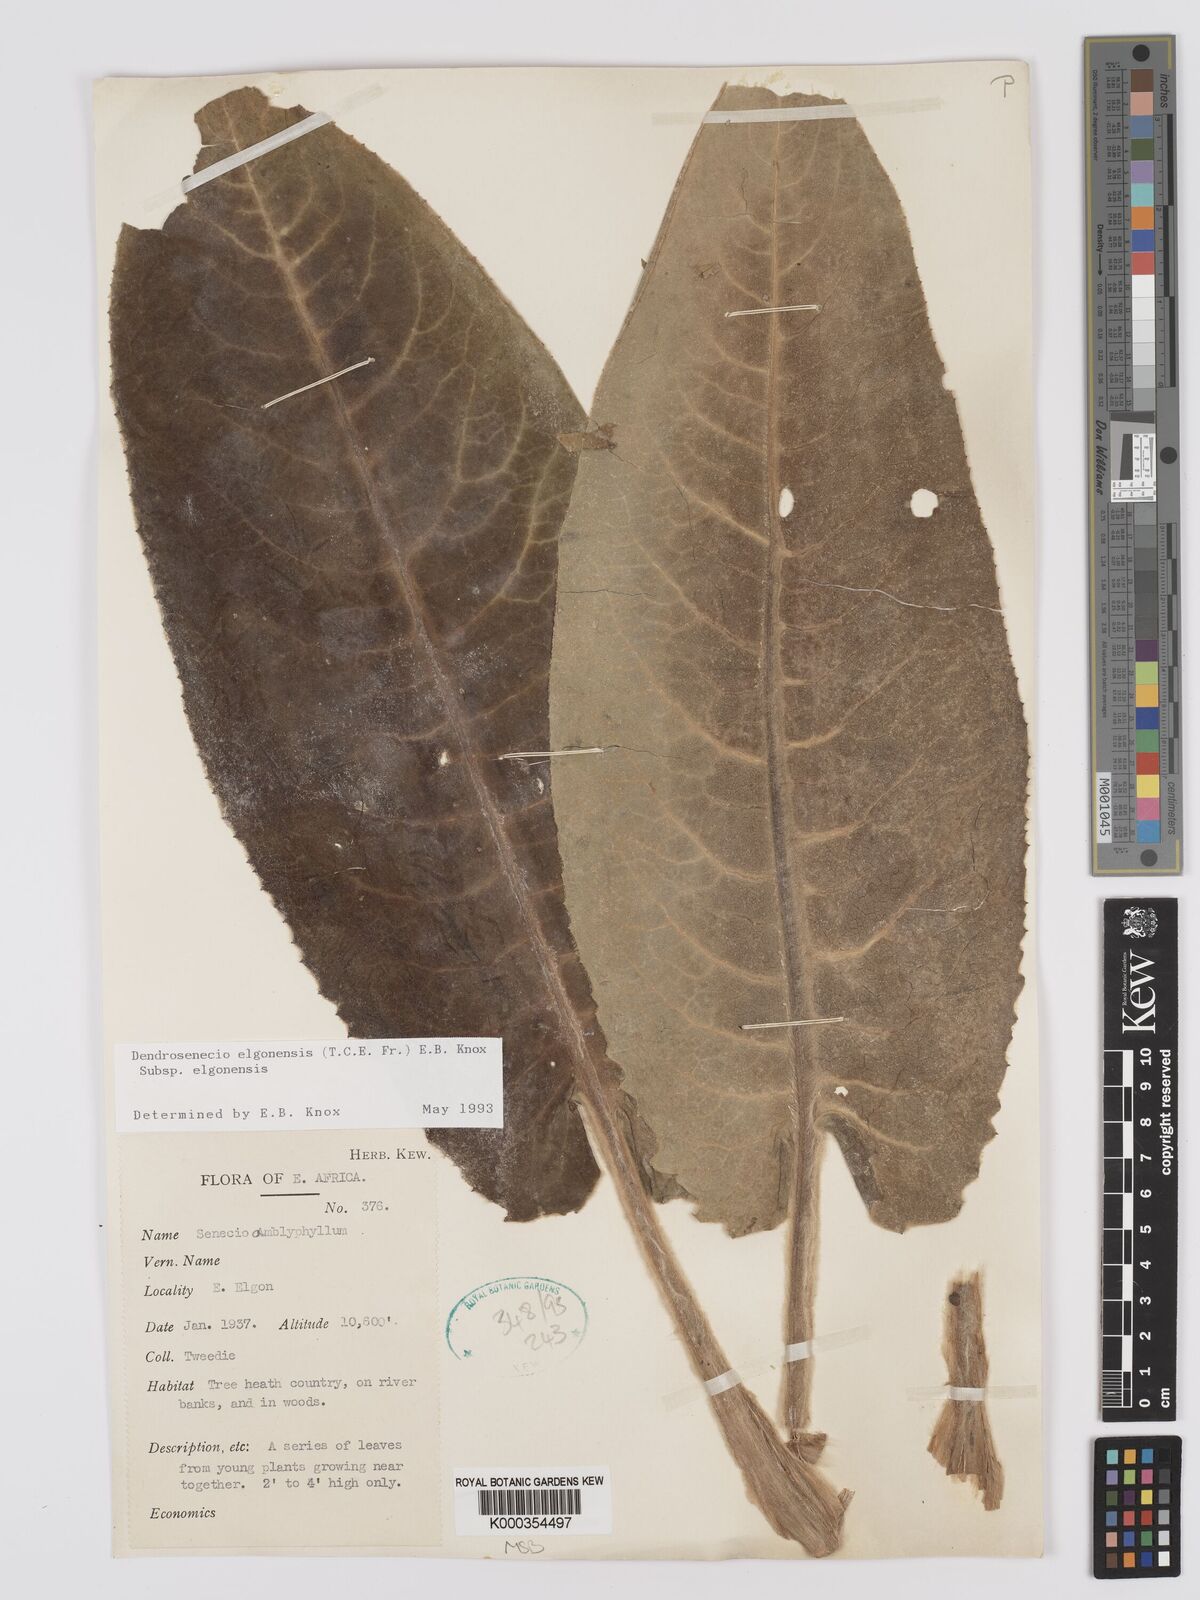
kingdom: Plantae
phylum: Tracheophyta
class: Magnoliopsida
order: Asterales
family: Asteraceae
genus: Dendrosenecio
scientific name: Dendrosenecio elgonensis
